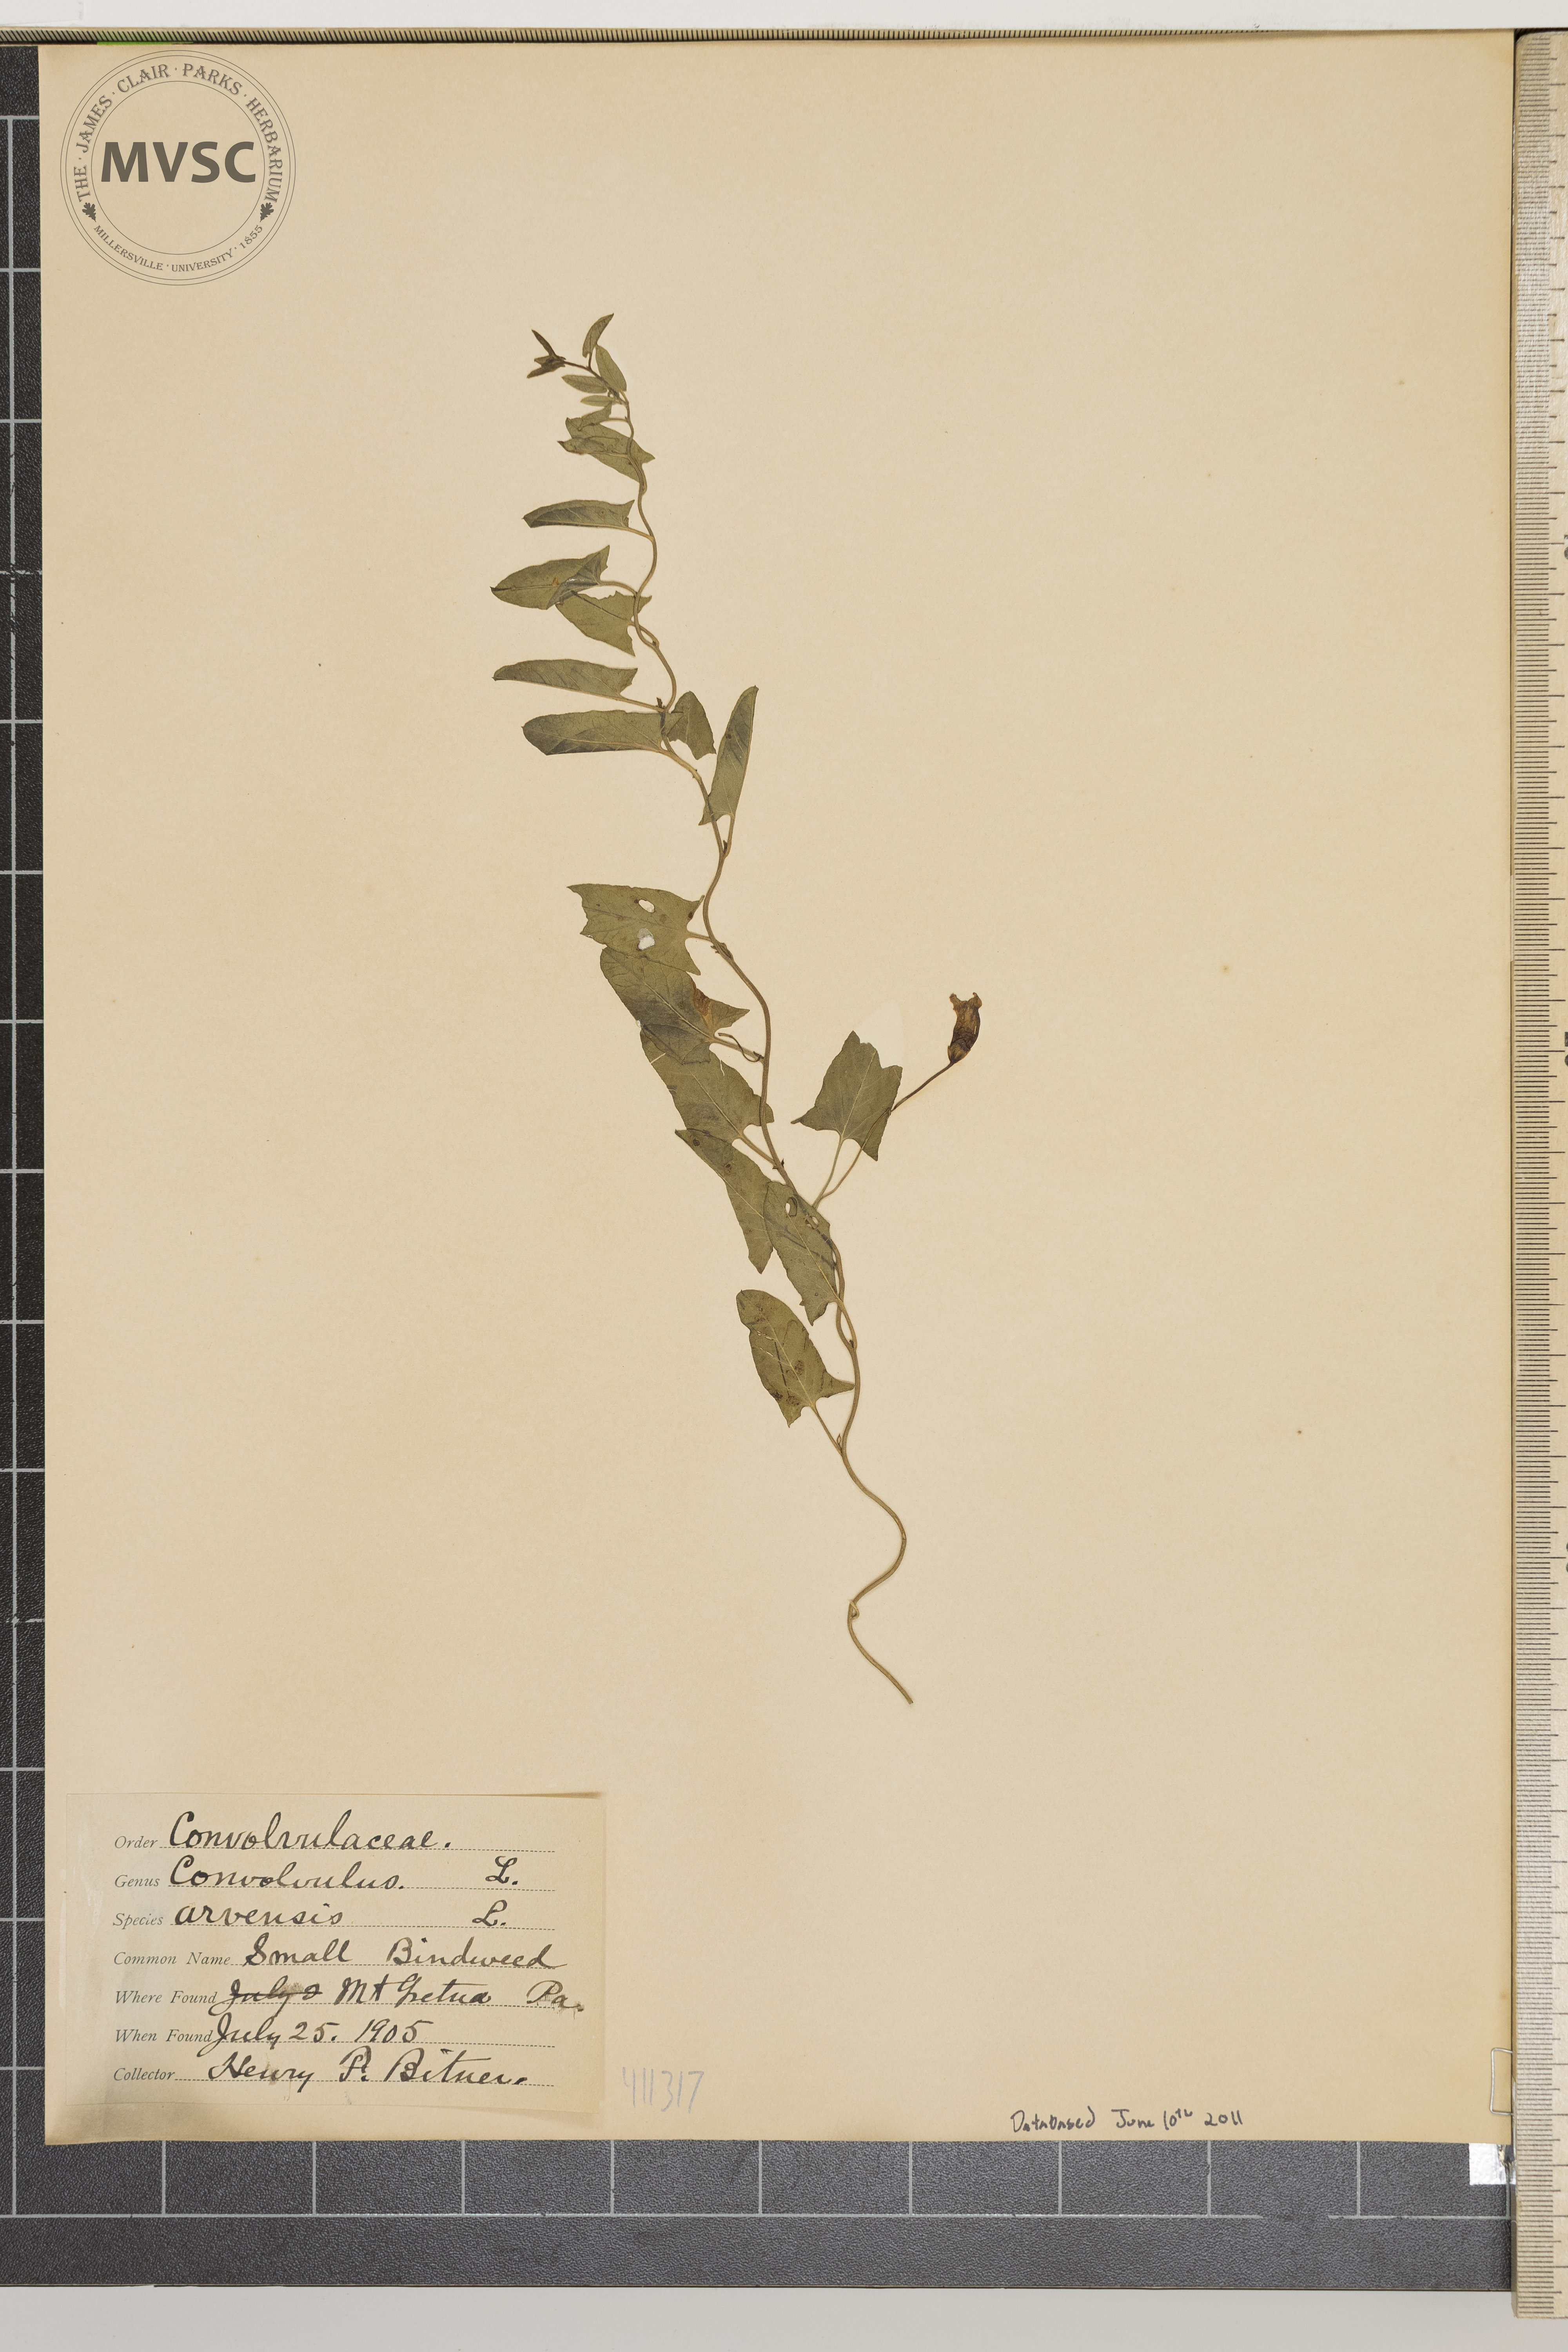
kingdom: Plantae
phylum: Tracheophyta
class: Magnoliopsida
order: Solanales
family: Convolvulaceae
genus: Convolvulus
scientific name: Convolvulus arvensis
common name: Small bindweed
